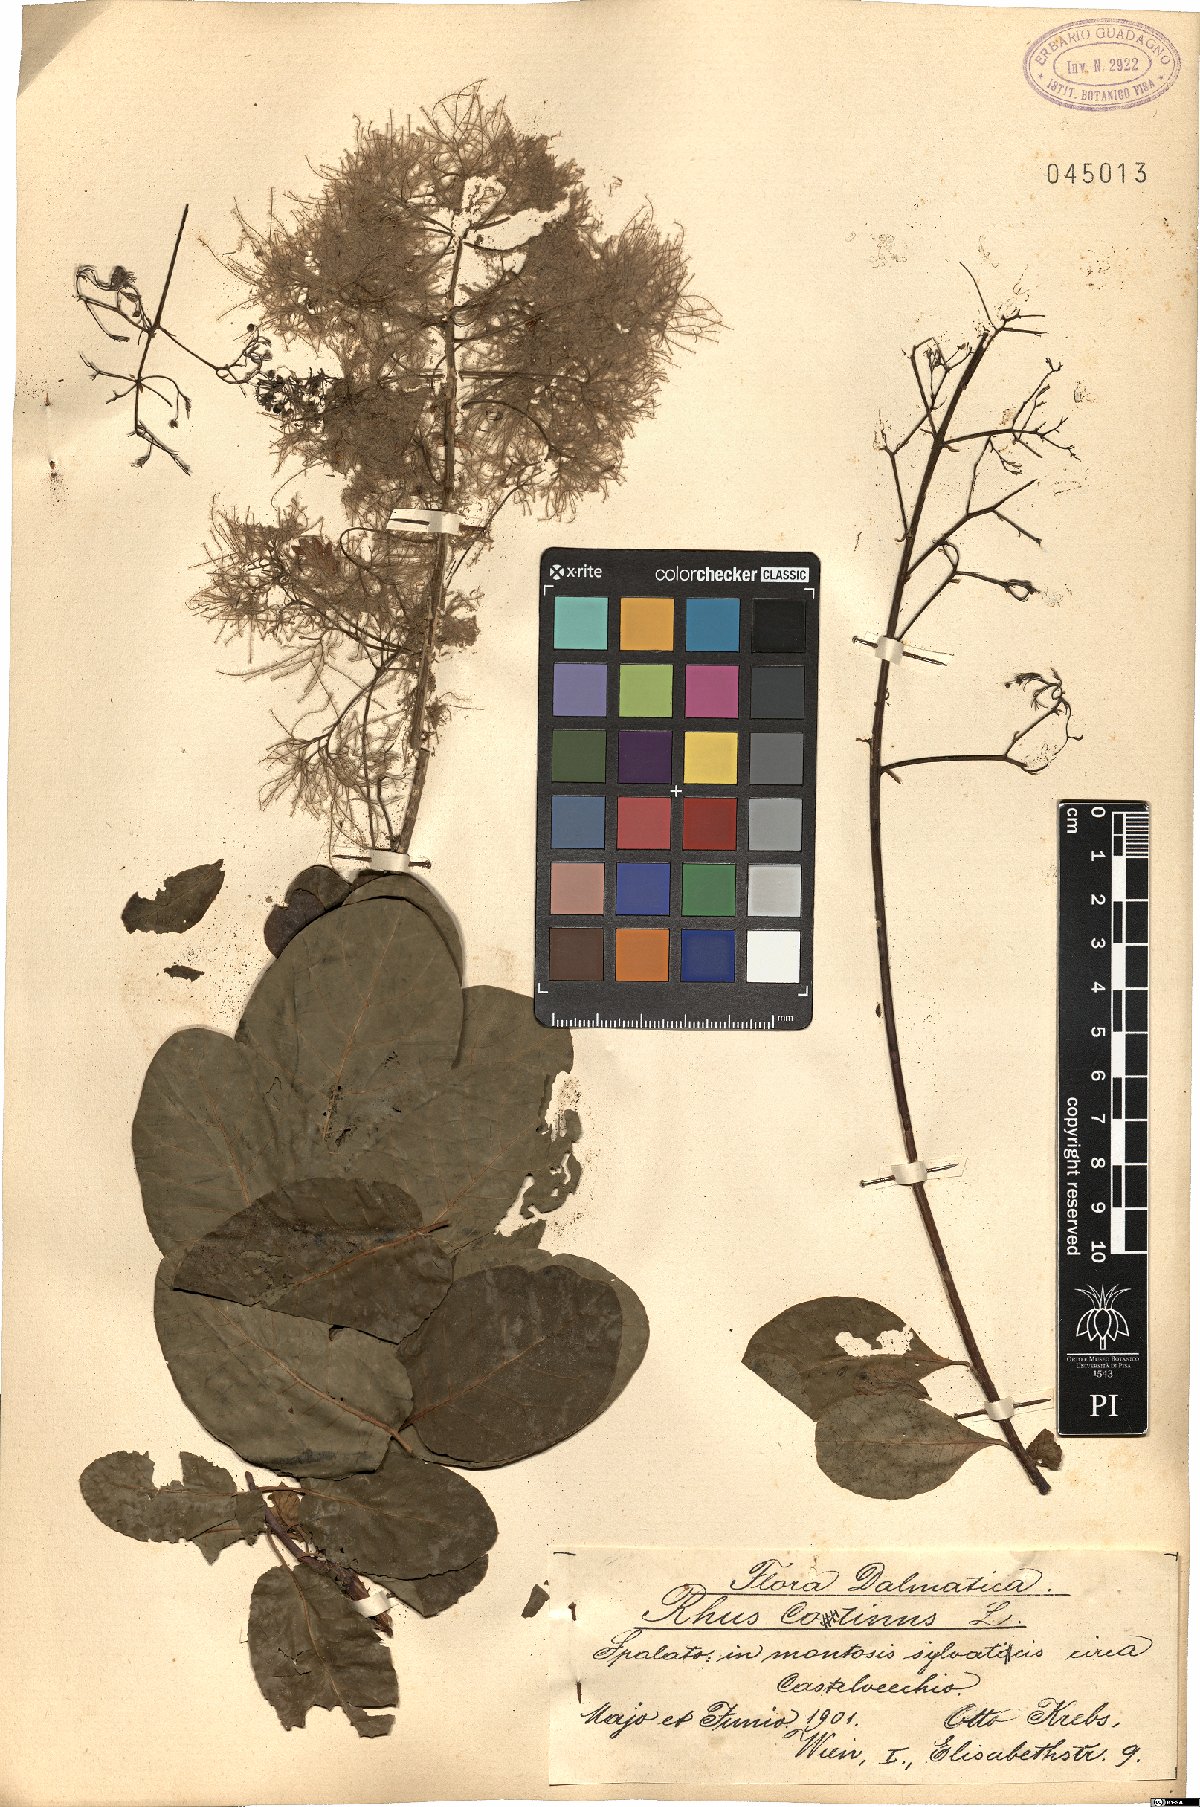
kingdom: Plantae
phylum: Tracheophyta
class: Magnoliopsida
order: Sapindales
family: Anacardiaceae
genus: Cotinus
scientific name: Cotinus coggygria
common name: Smoke-tree
